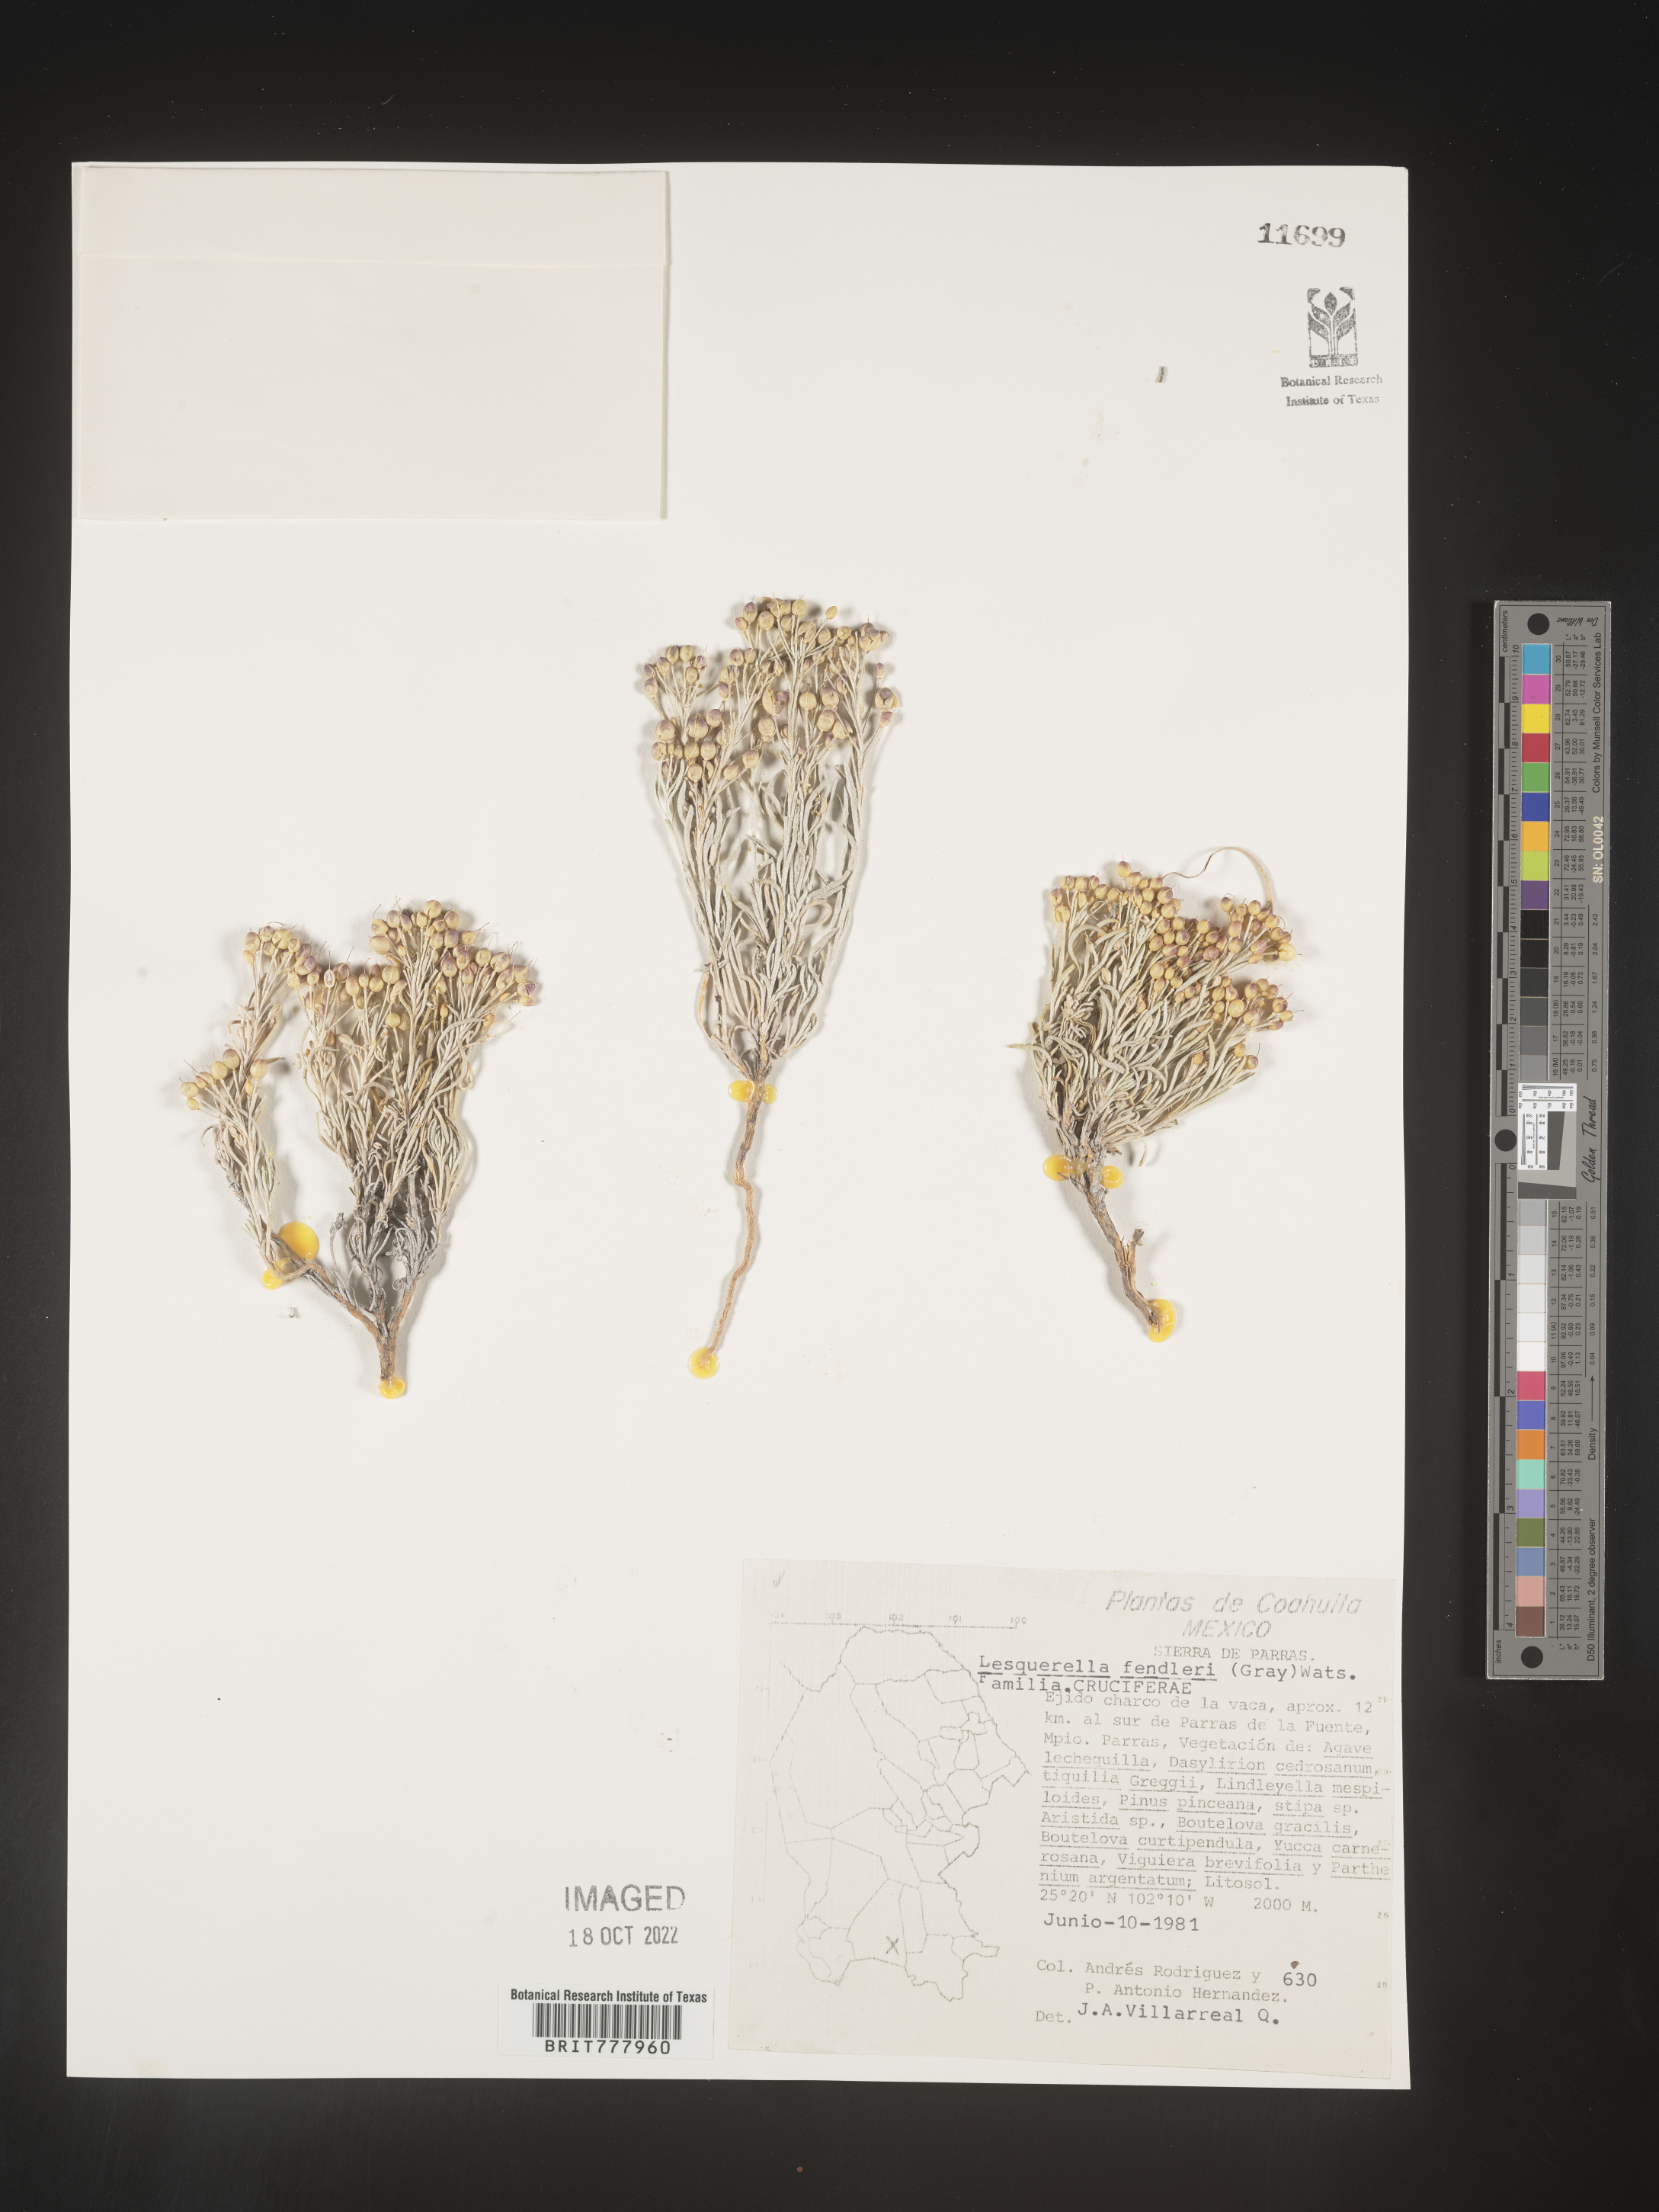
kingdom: Chromista
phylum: Cercozoa
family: Psammonobiotidae
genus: Lesquerella
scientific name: Lesquerella
